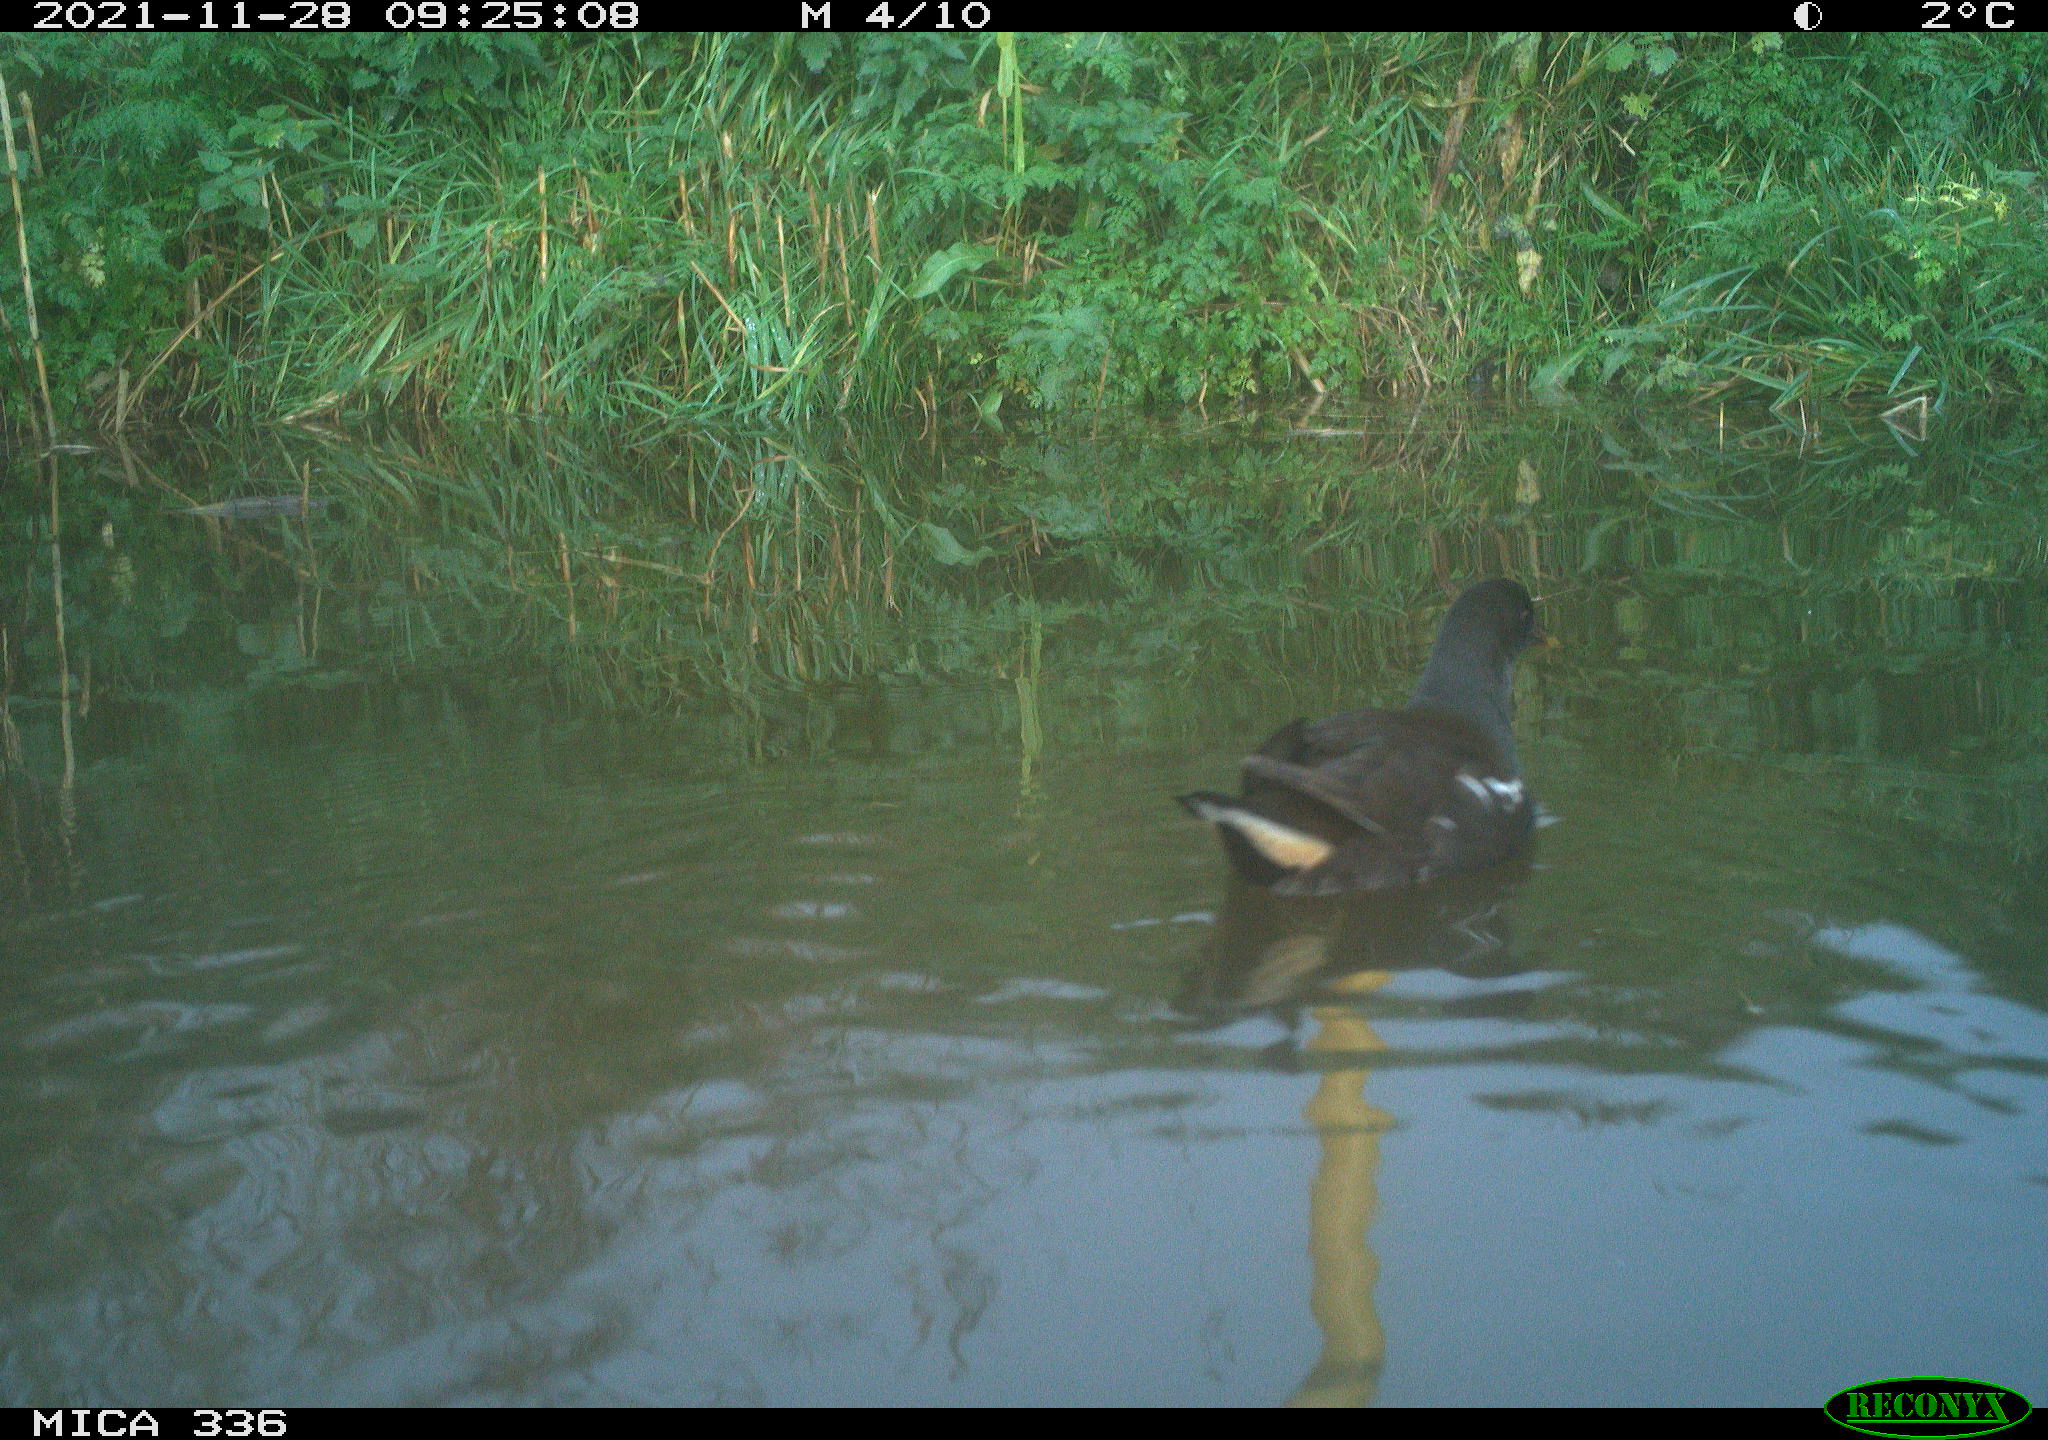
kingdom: Animalia
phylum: Chordata
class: Aves
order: Gruiformes
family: Rallidae
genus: Gallinula
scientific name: Gallinula chloropus
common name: Common moorhen
